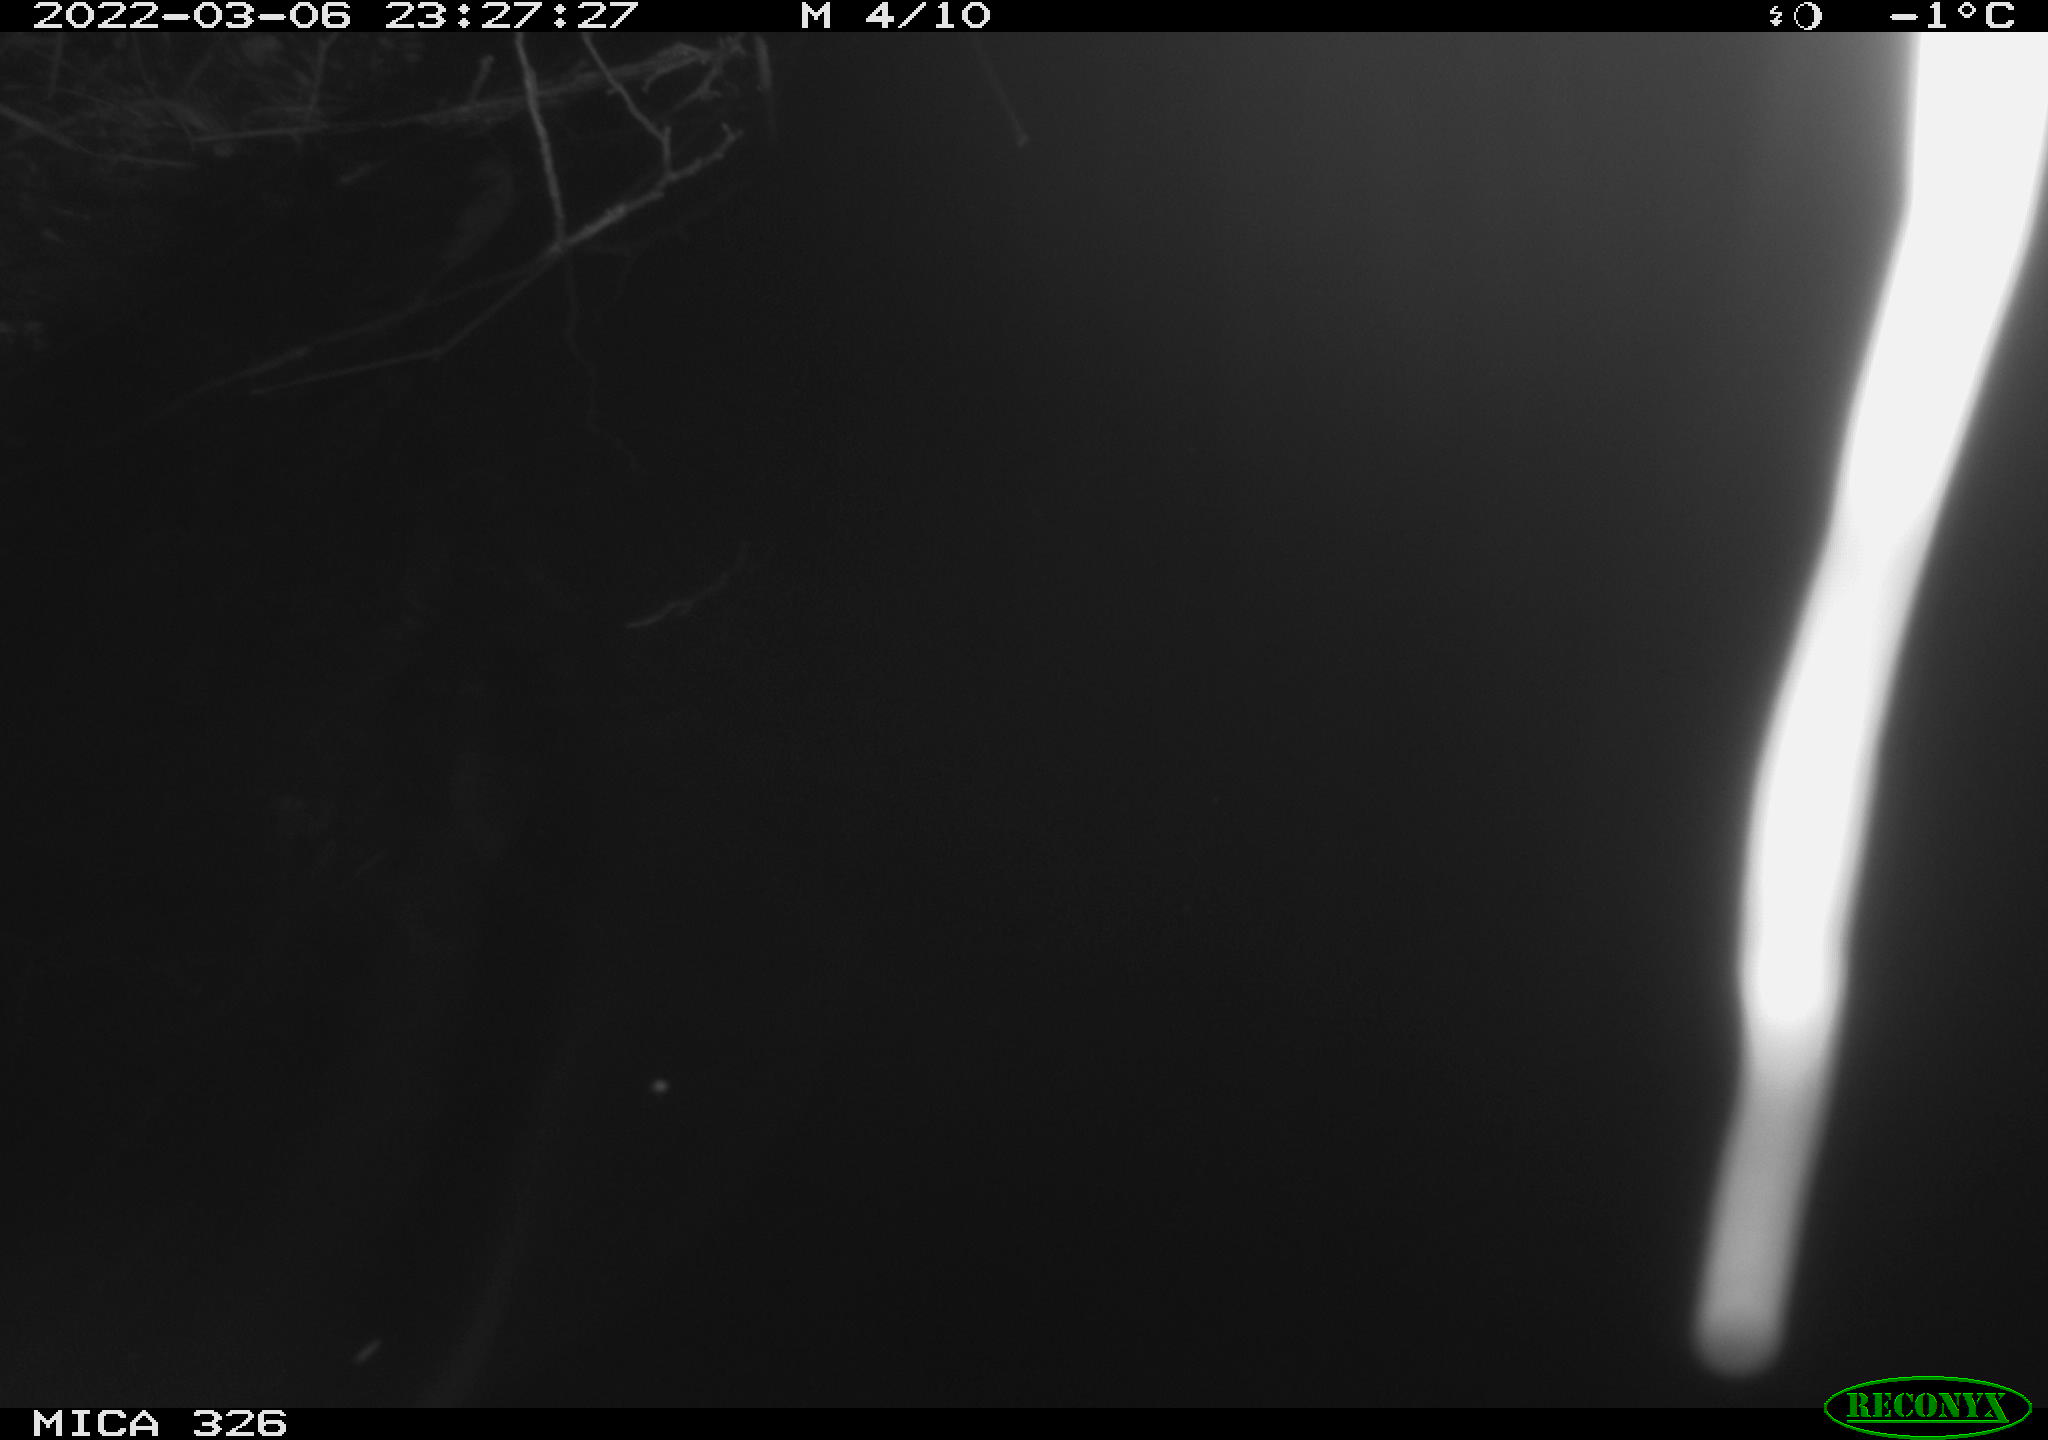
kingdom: Animalia
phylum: Chordata
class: Mammalia
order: Rodentia
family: Cricetidae
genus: Ondatra
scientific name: Ondatra zibethicus
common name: Muskrat
